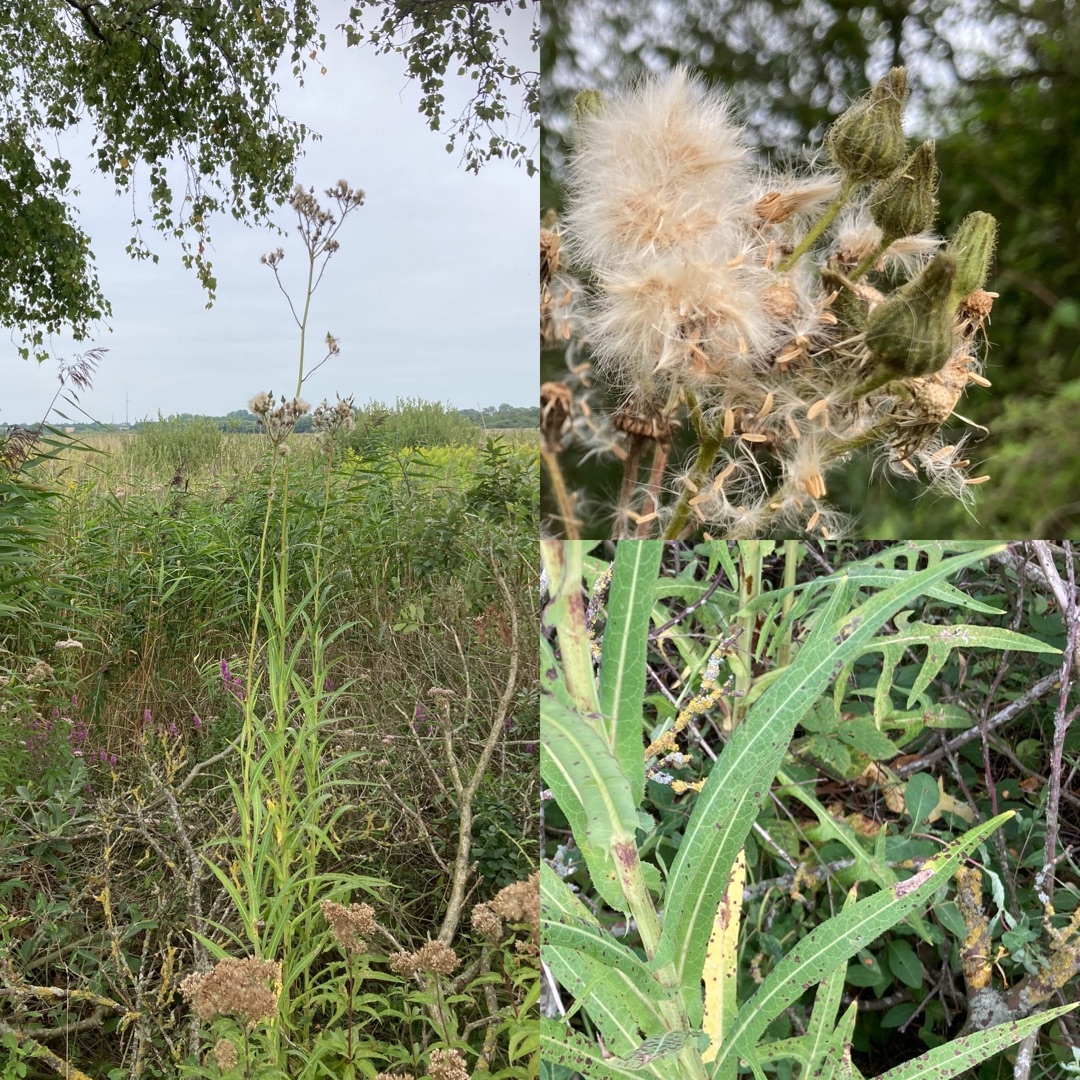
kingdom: Plantae
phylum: Tracheophyta
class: Magnoliopsida
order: Asterales
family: Asteraceae
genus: Sonchus
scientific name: Sonchus palustris
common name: Kær-svinemælk
